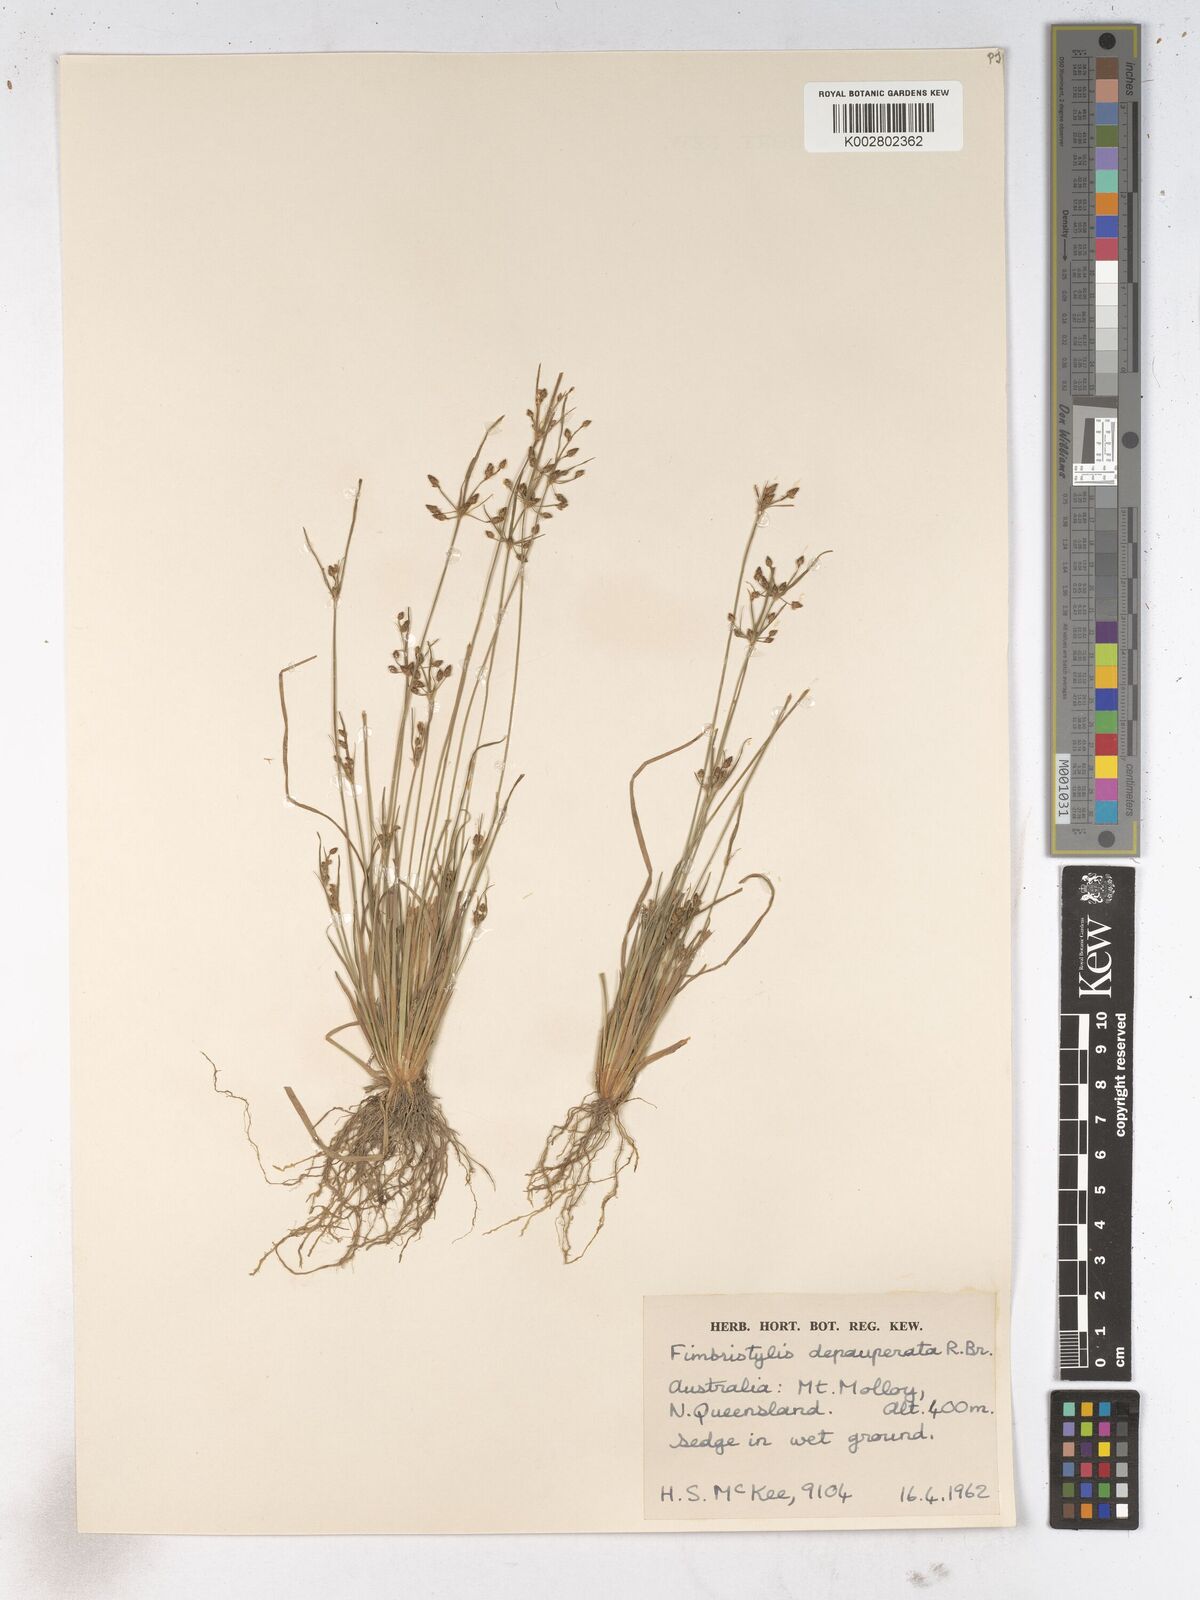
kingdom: Plantae
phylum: Tracheophyta
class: Liliopsida
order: Poales
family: Cyperaceae
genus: Fimbristylis
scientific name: Fimbristylis dichotoma
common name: Forked fimbry
